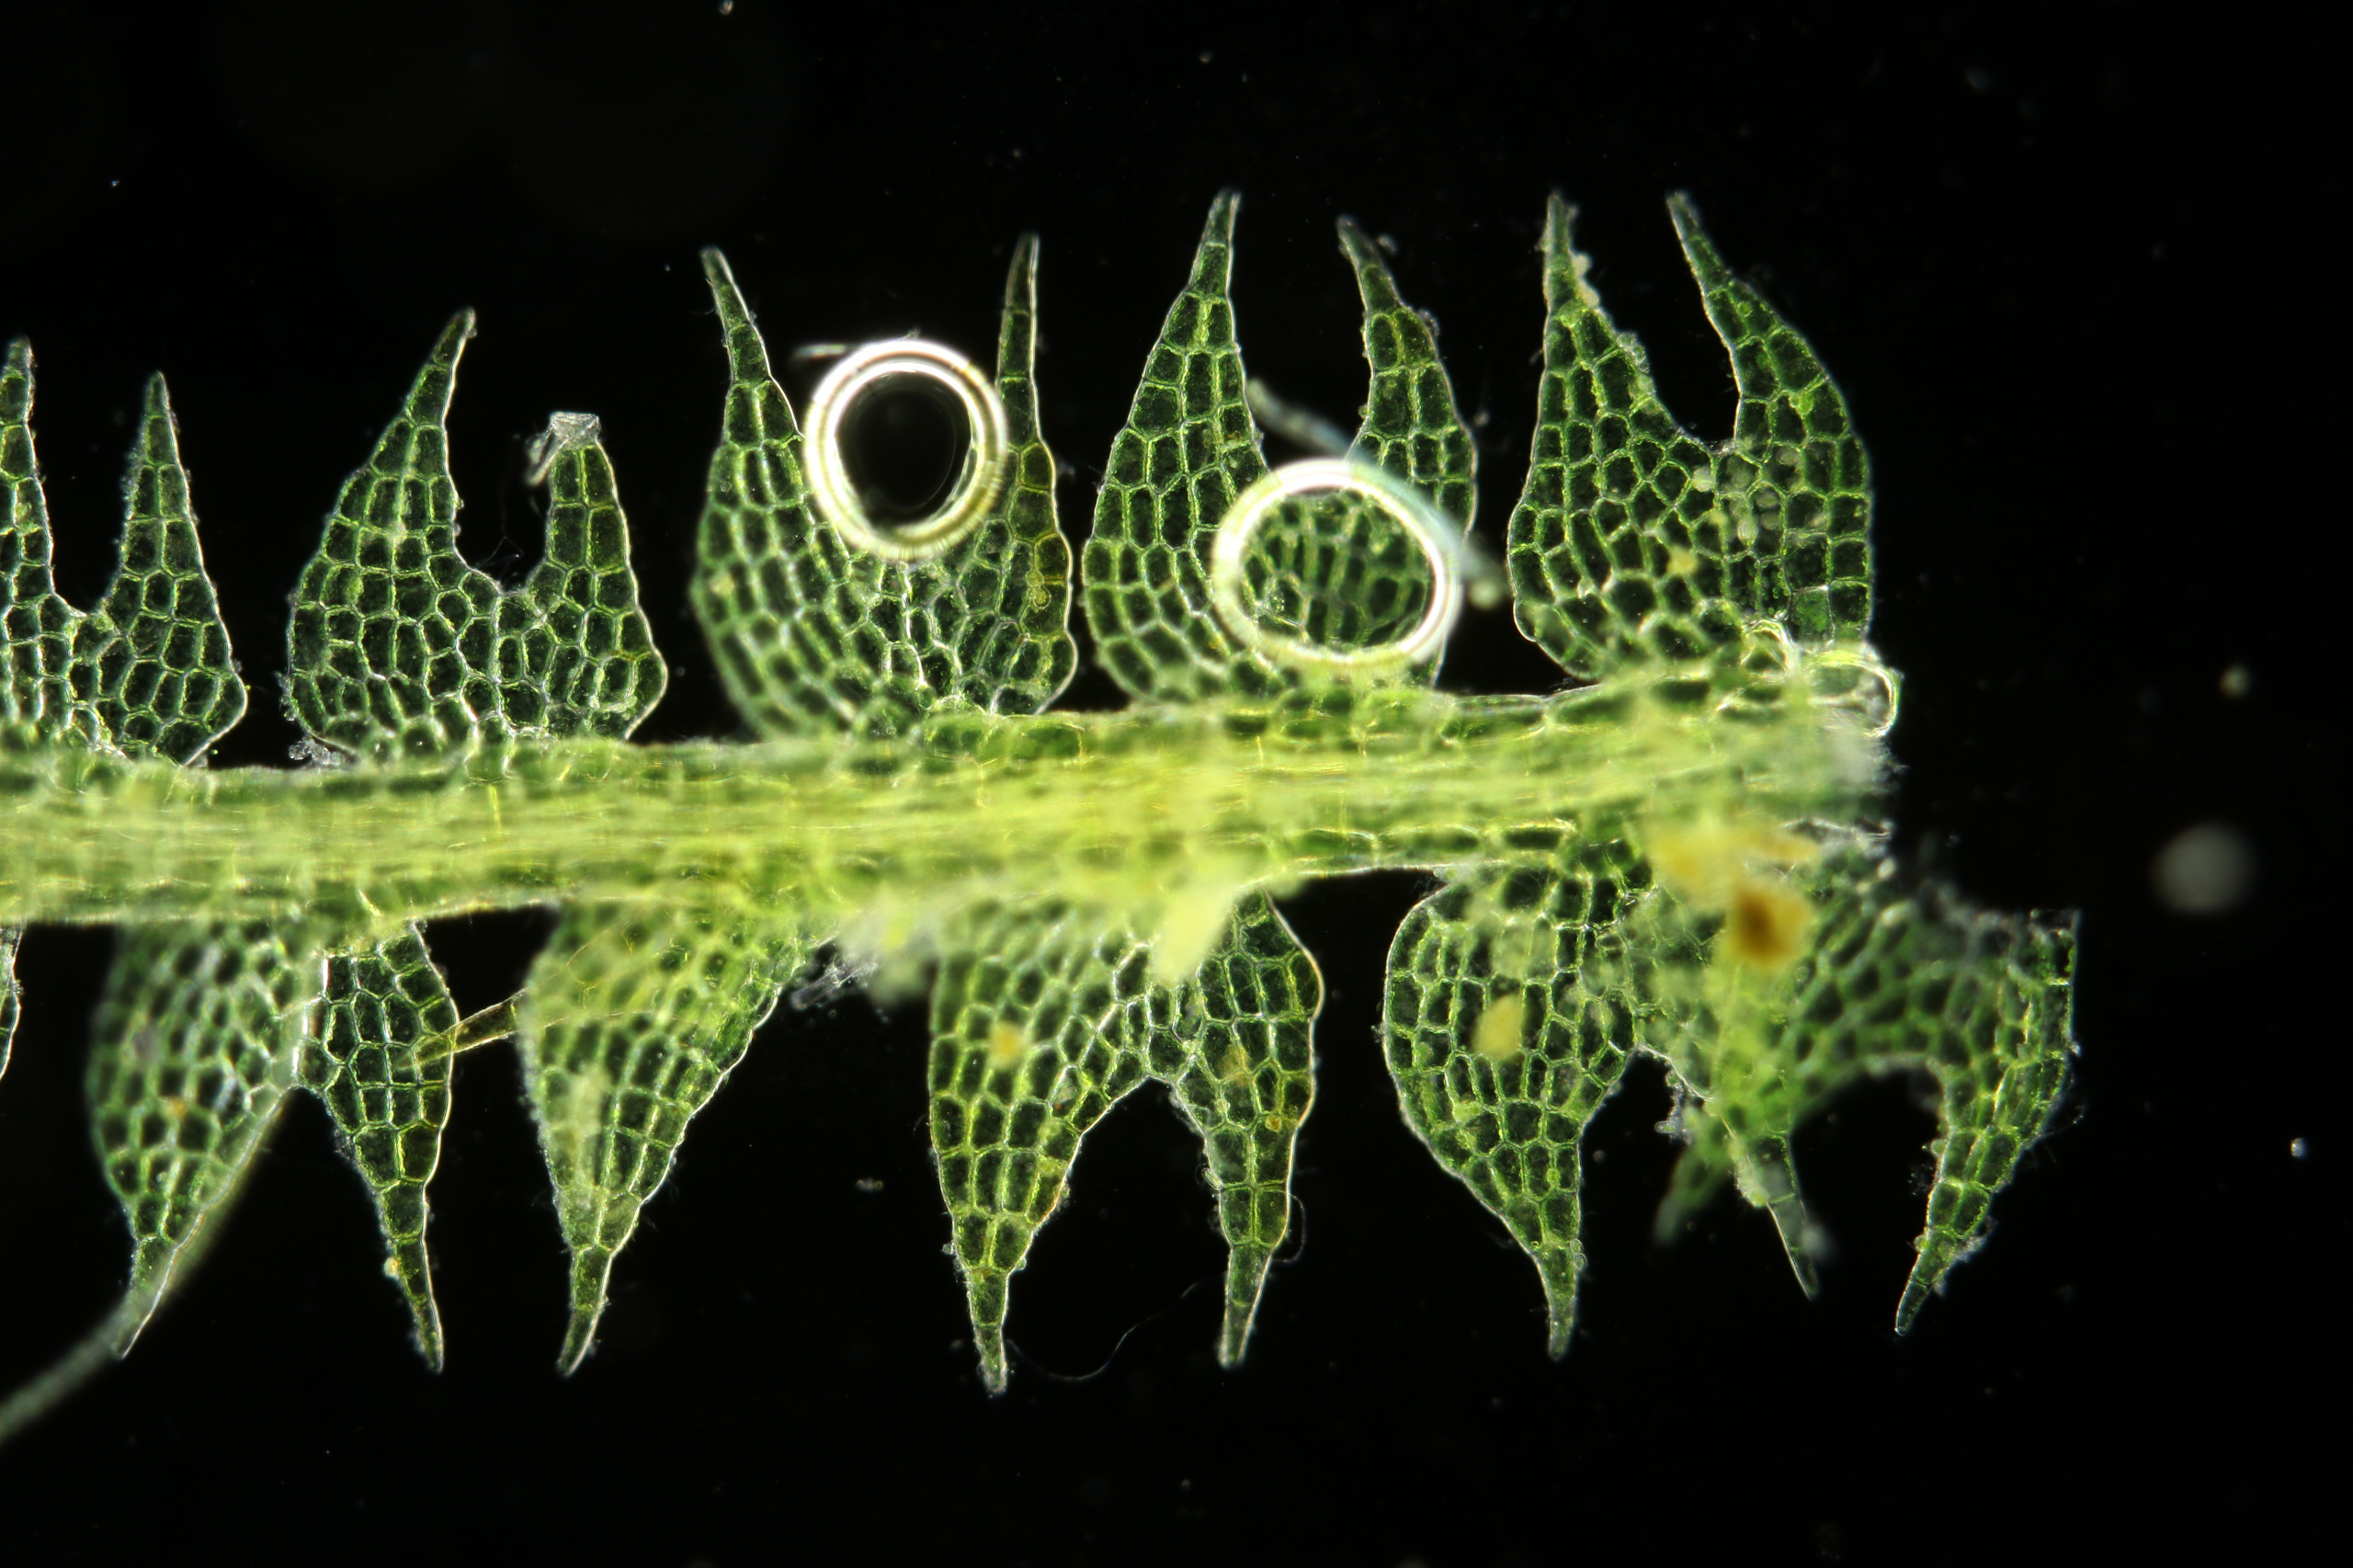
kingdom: Plantae
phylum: Marchantiophyta
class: Jungermanniopsida
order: Jungermanniales
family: Cephaloziaceae
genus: Cephalozia
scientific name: Cephalozia bicuspidata
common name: Tvespidset kantbæger
